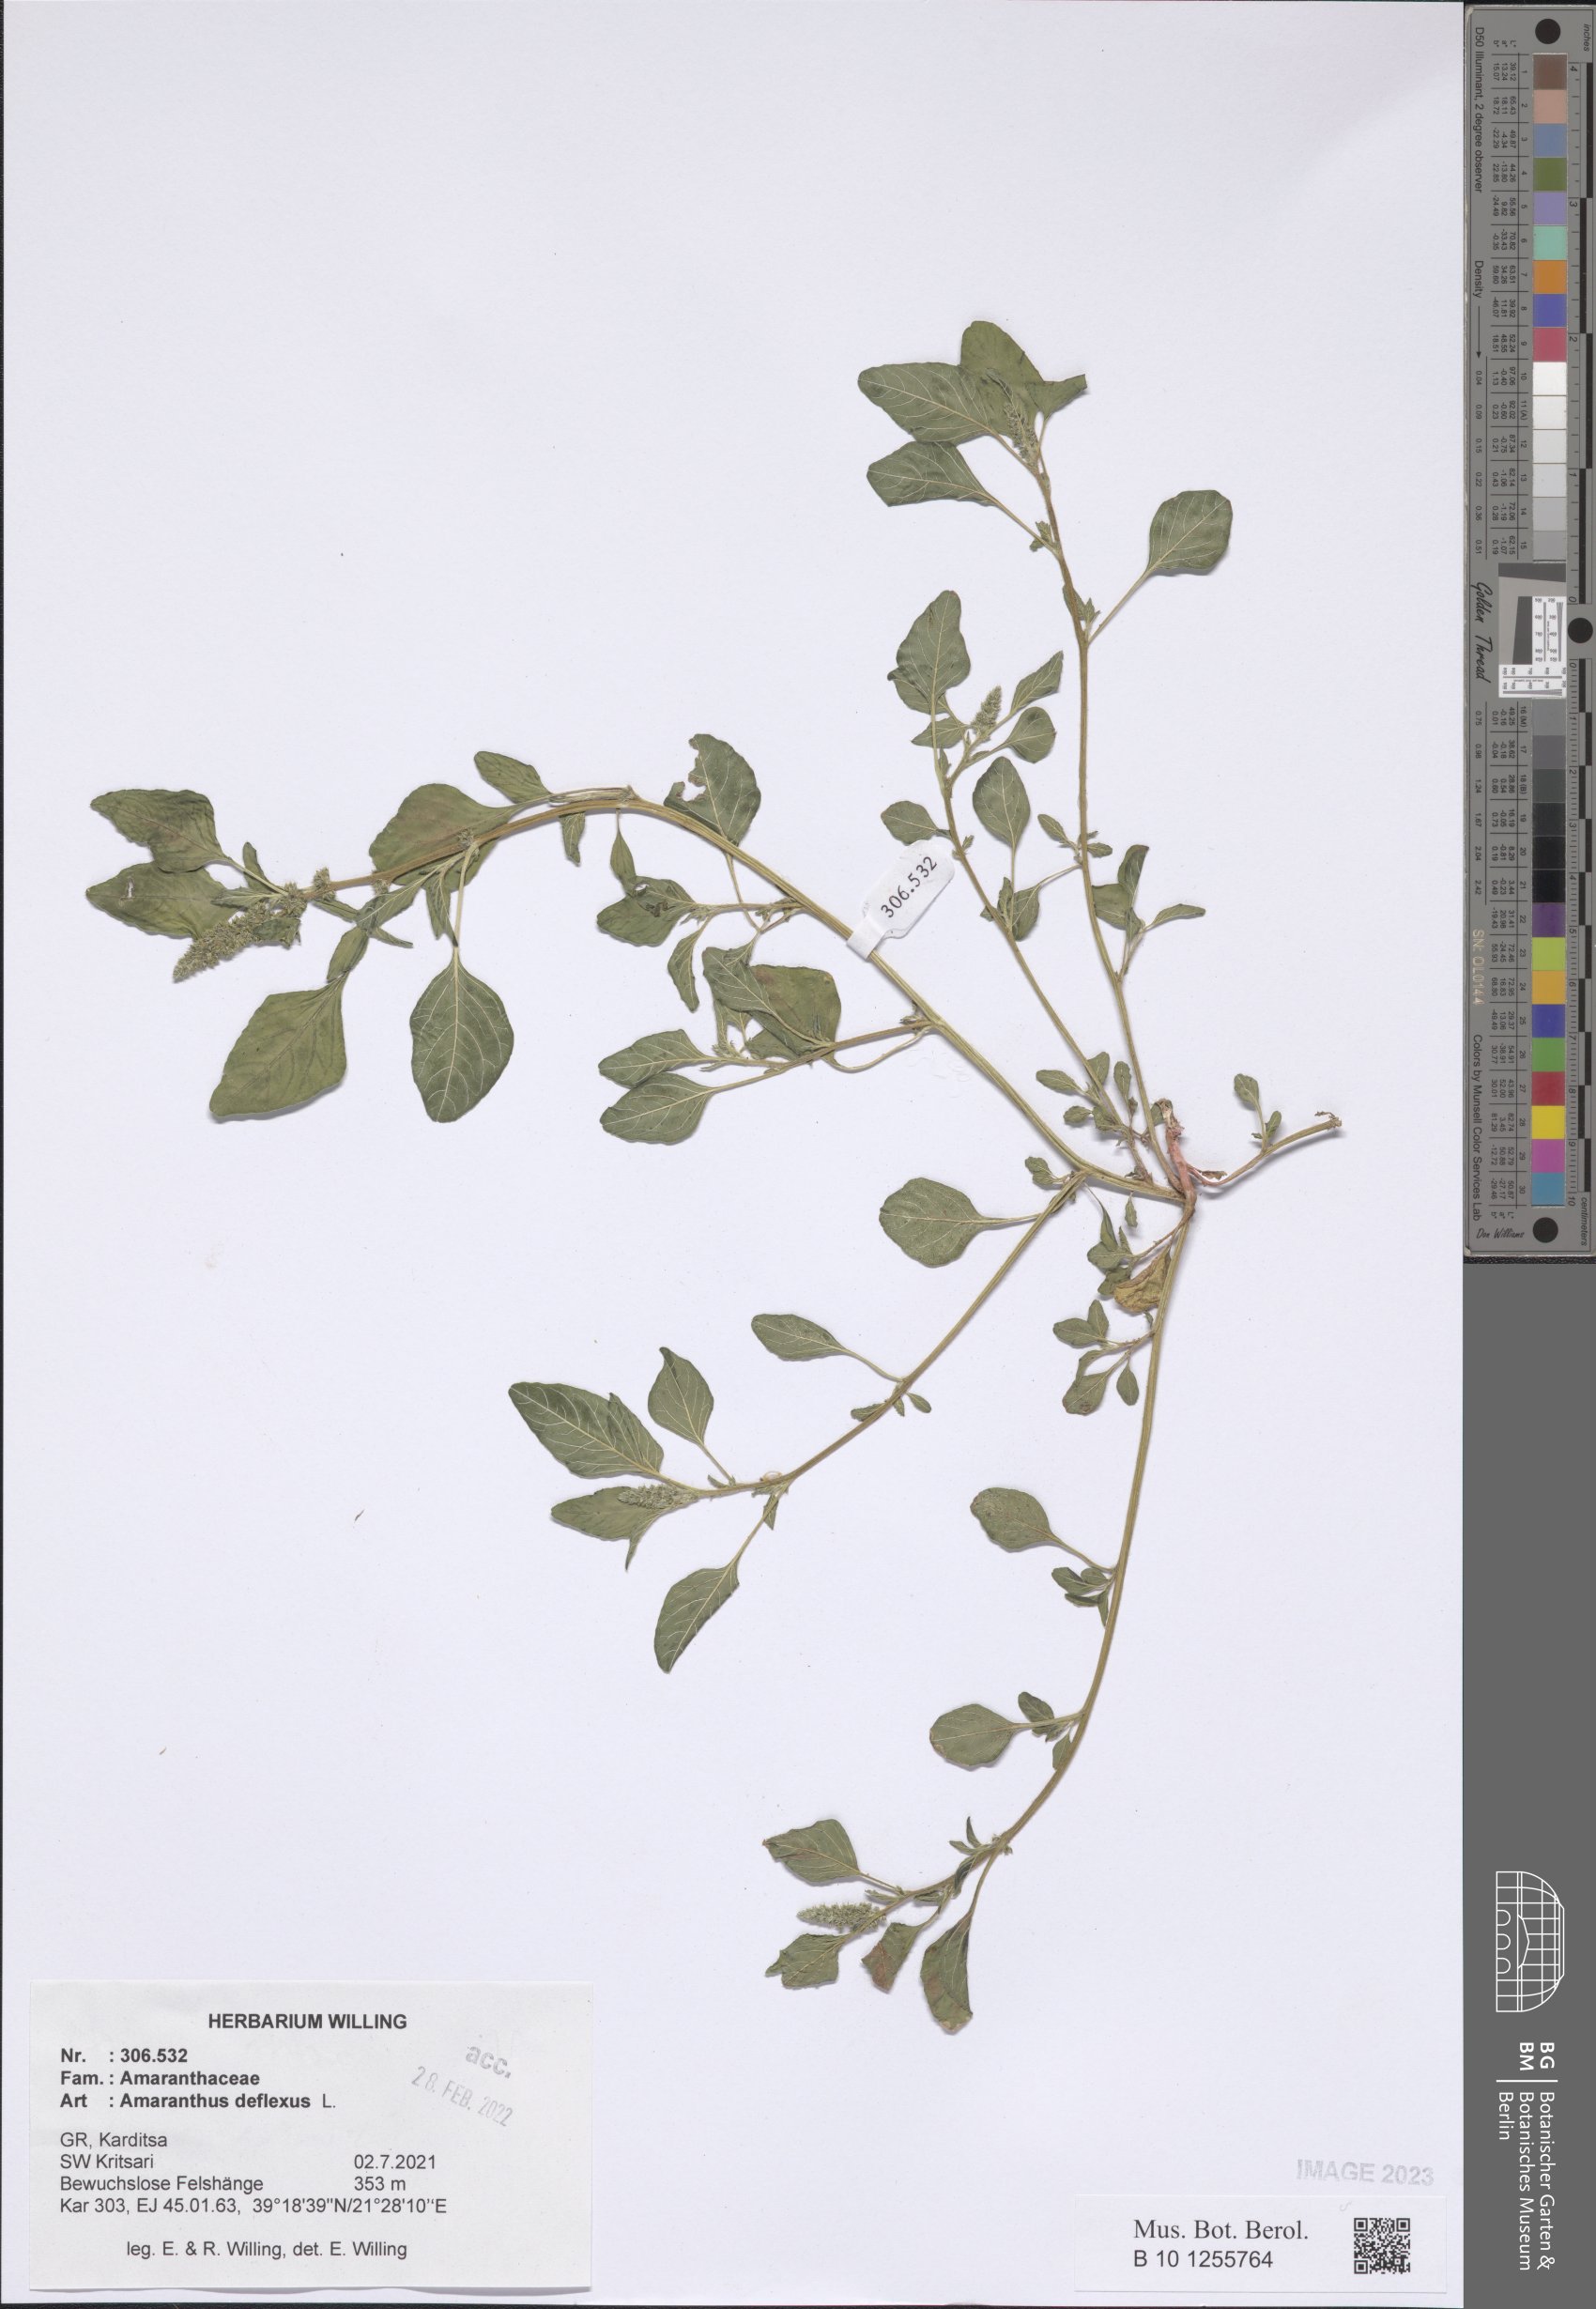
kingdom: Plantae
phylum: Tracheophyta
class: Magnoliopsida
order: Caryophyllales
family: Amaranthaceae
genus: Amaranthus
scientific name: Amaranthus deflexus
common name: Perennial pigweed
